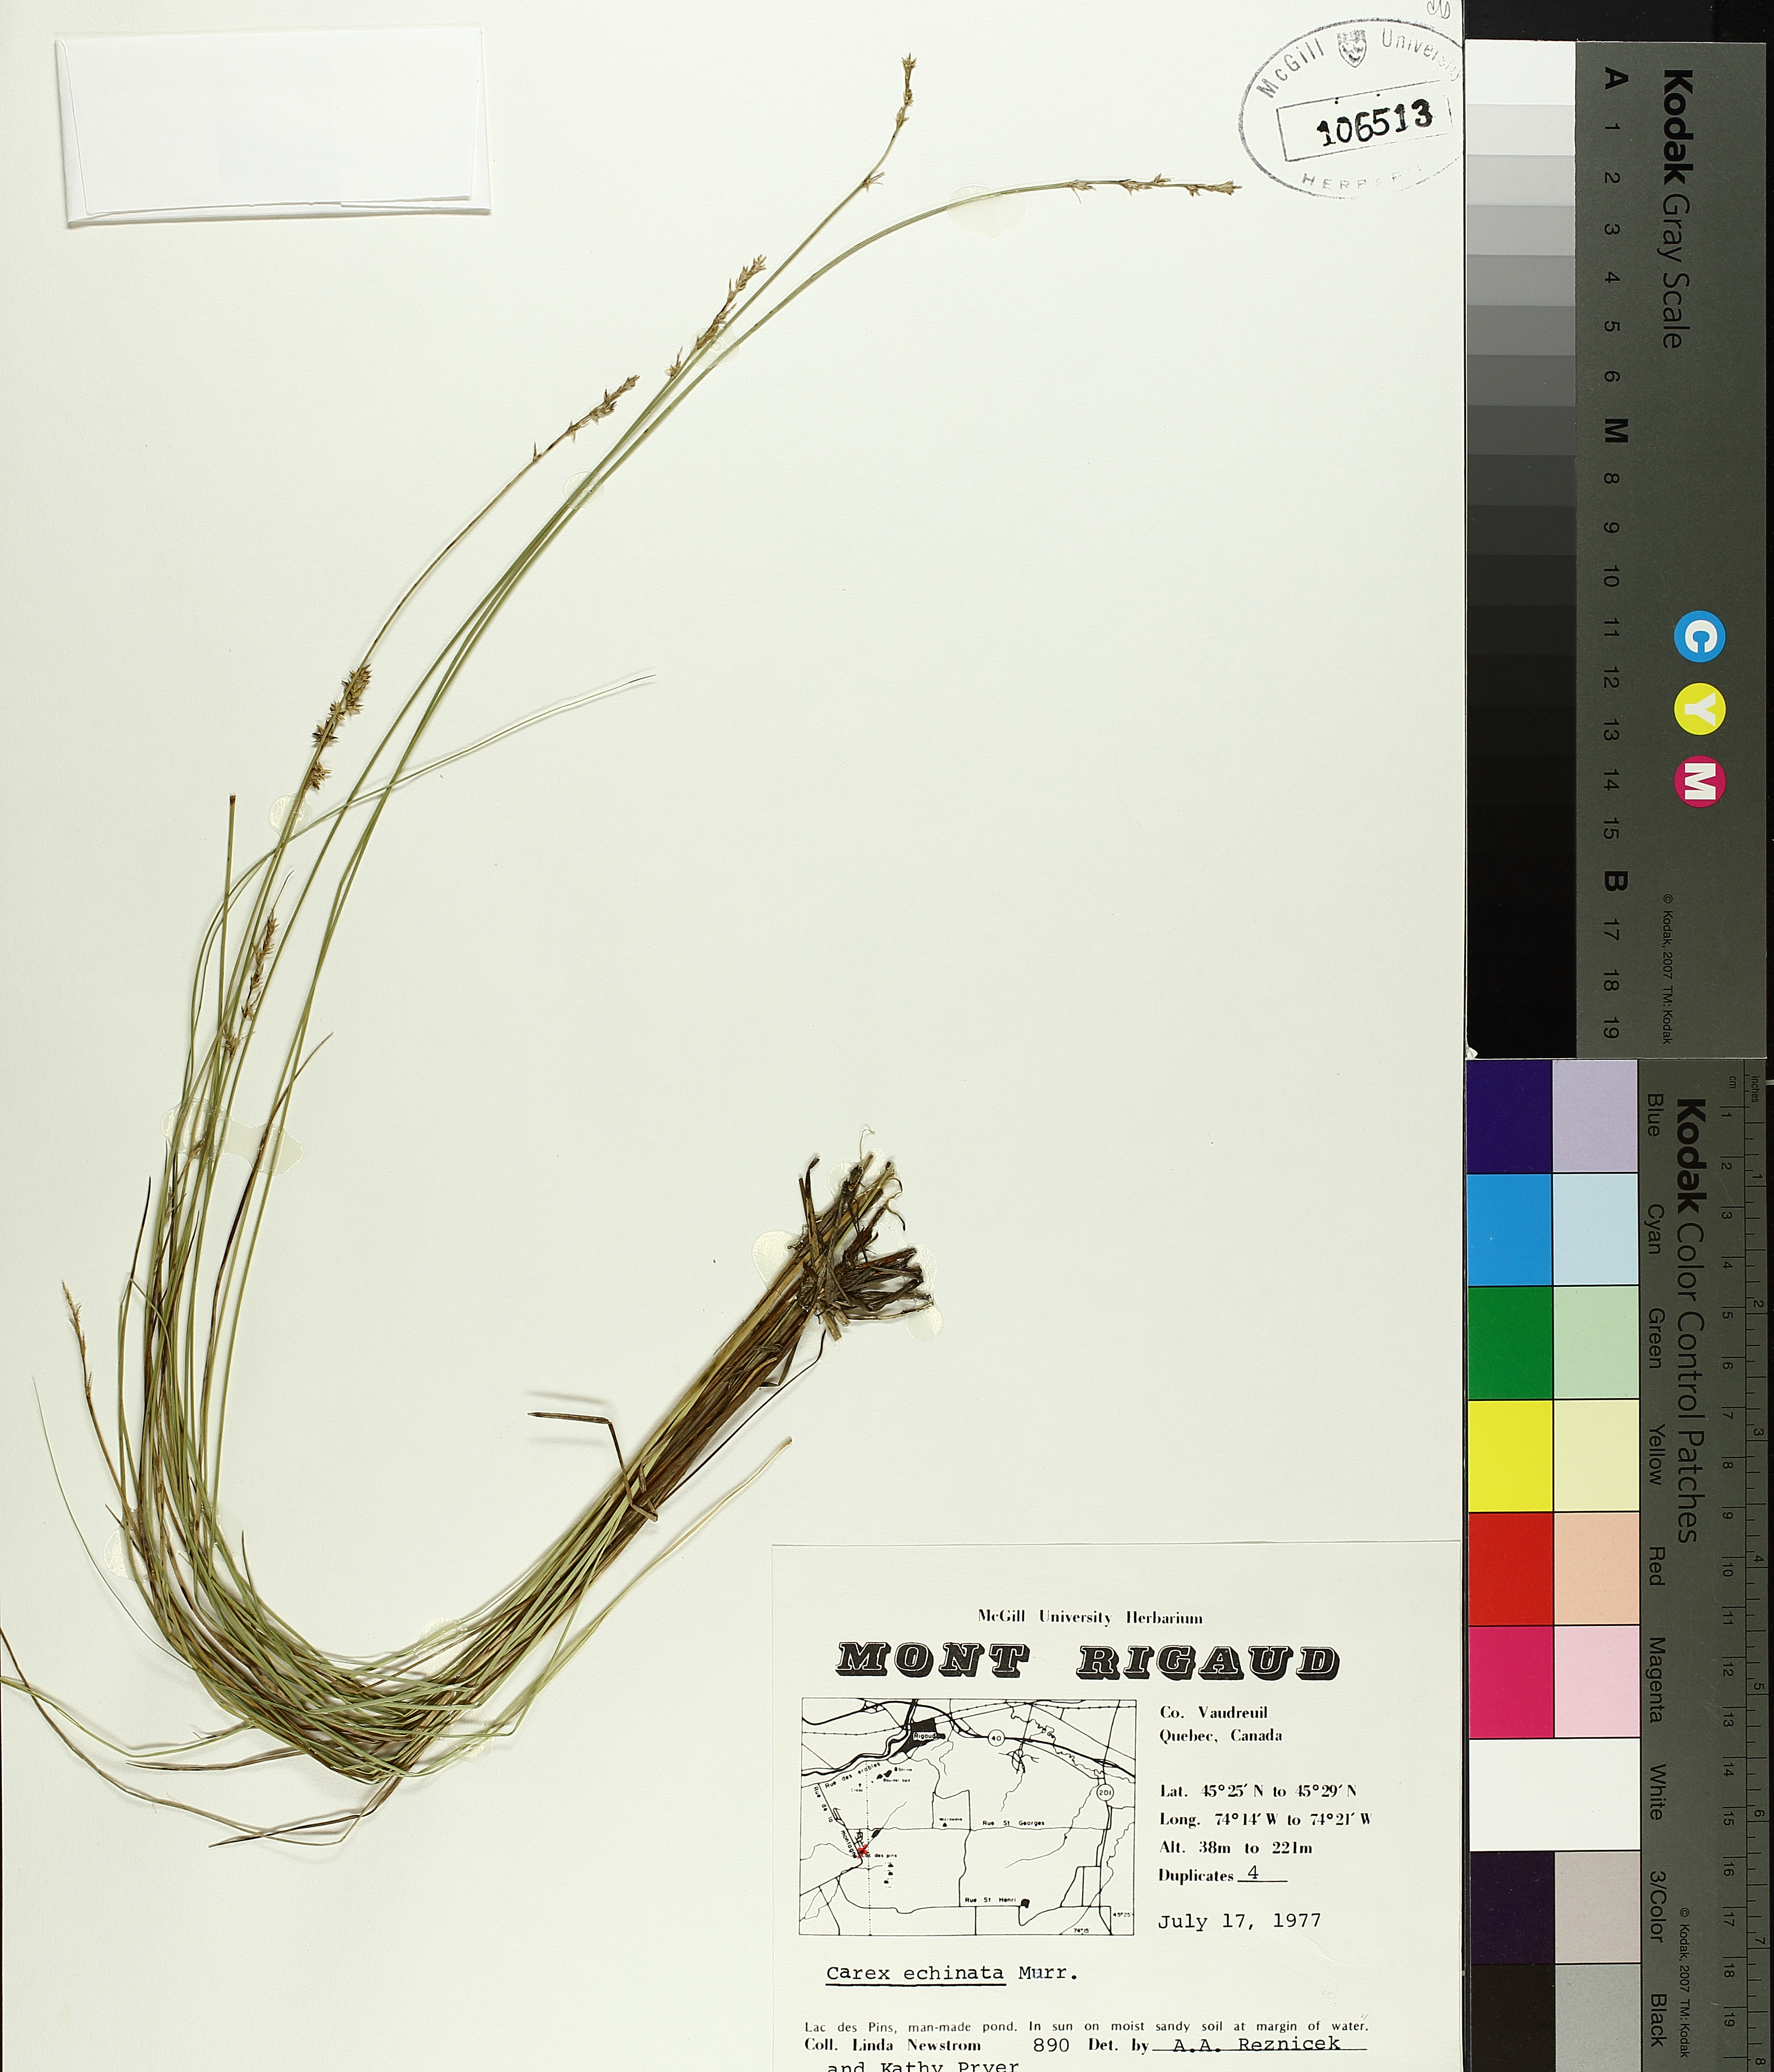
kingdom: Plantae
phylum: Tracheophyta
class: Liliopsida
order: Poales
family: Cyperaceae
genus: Carex
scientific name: Carex echinata
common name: Star sedge
